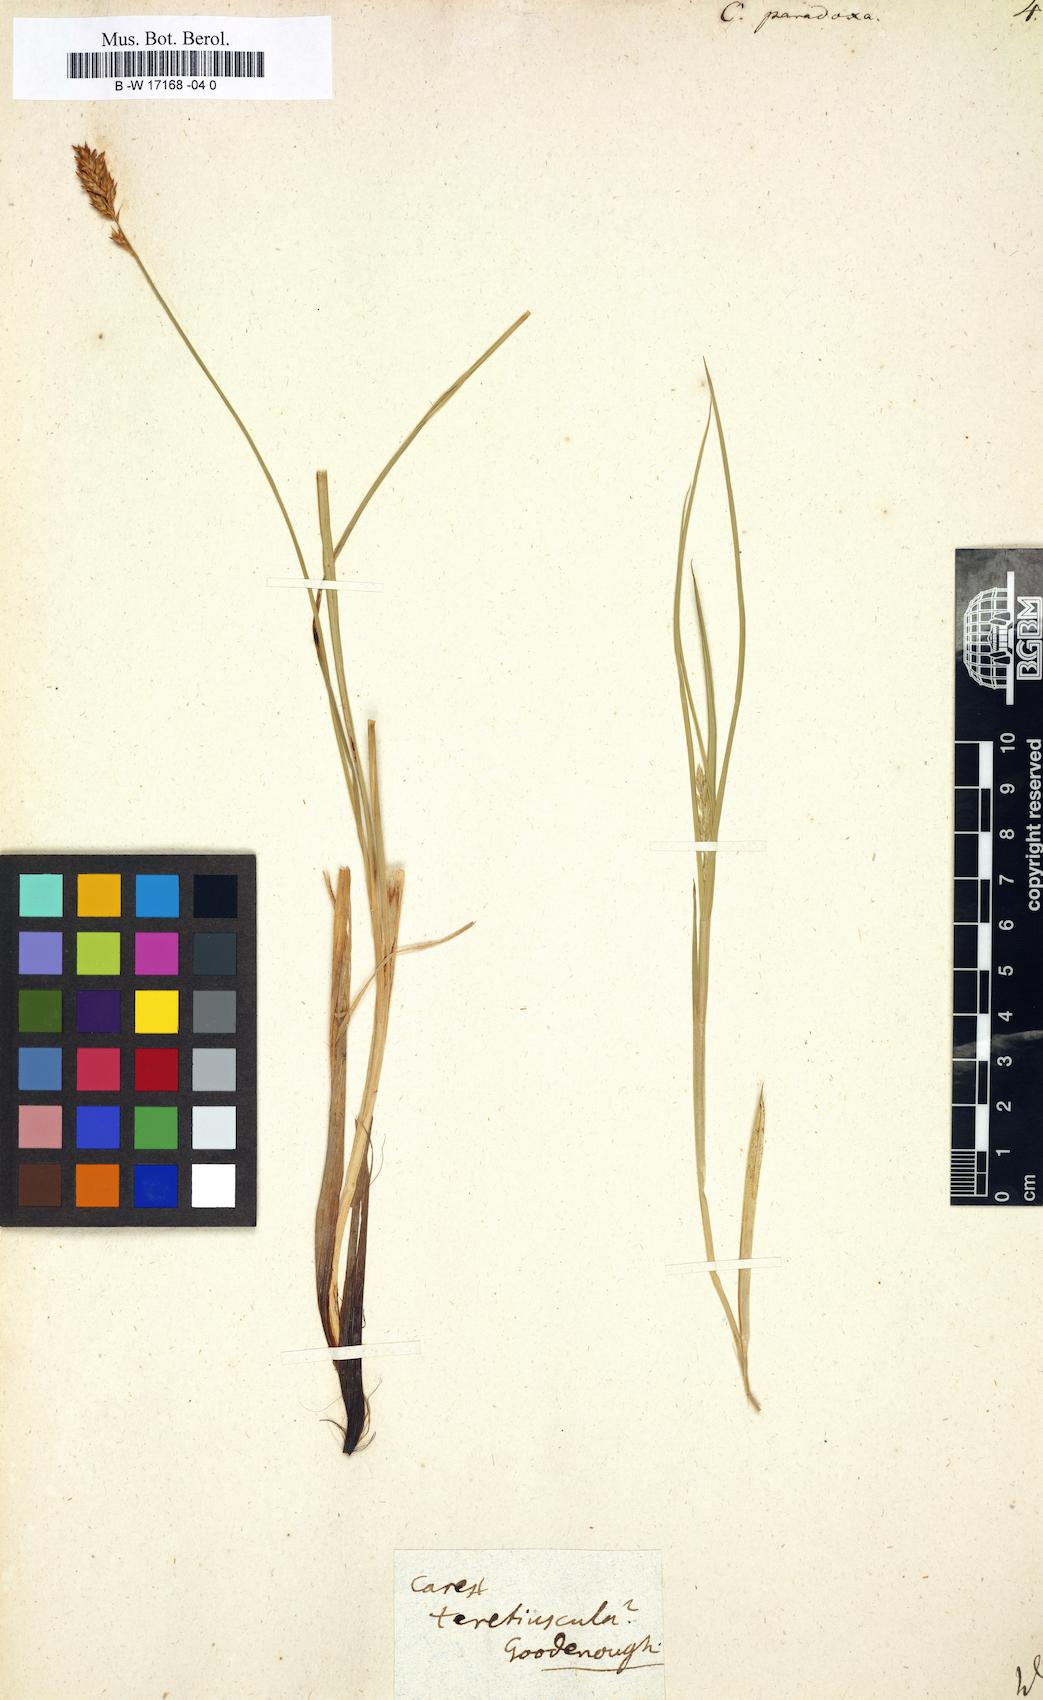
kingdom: Plantae
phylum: Tracheophyta
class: Liliopsida
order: Poales
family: Cyperaceae
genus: Carex
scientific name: Carex
